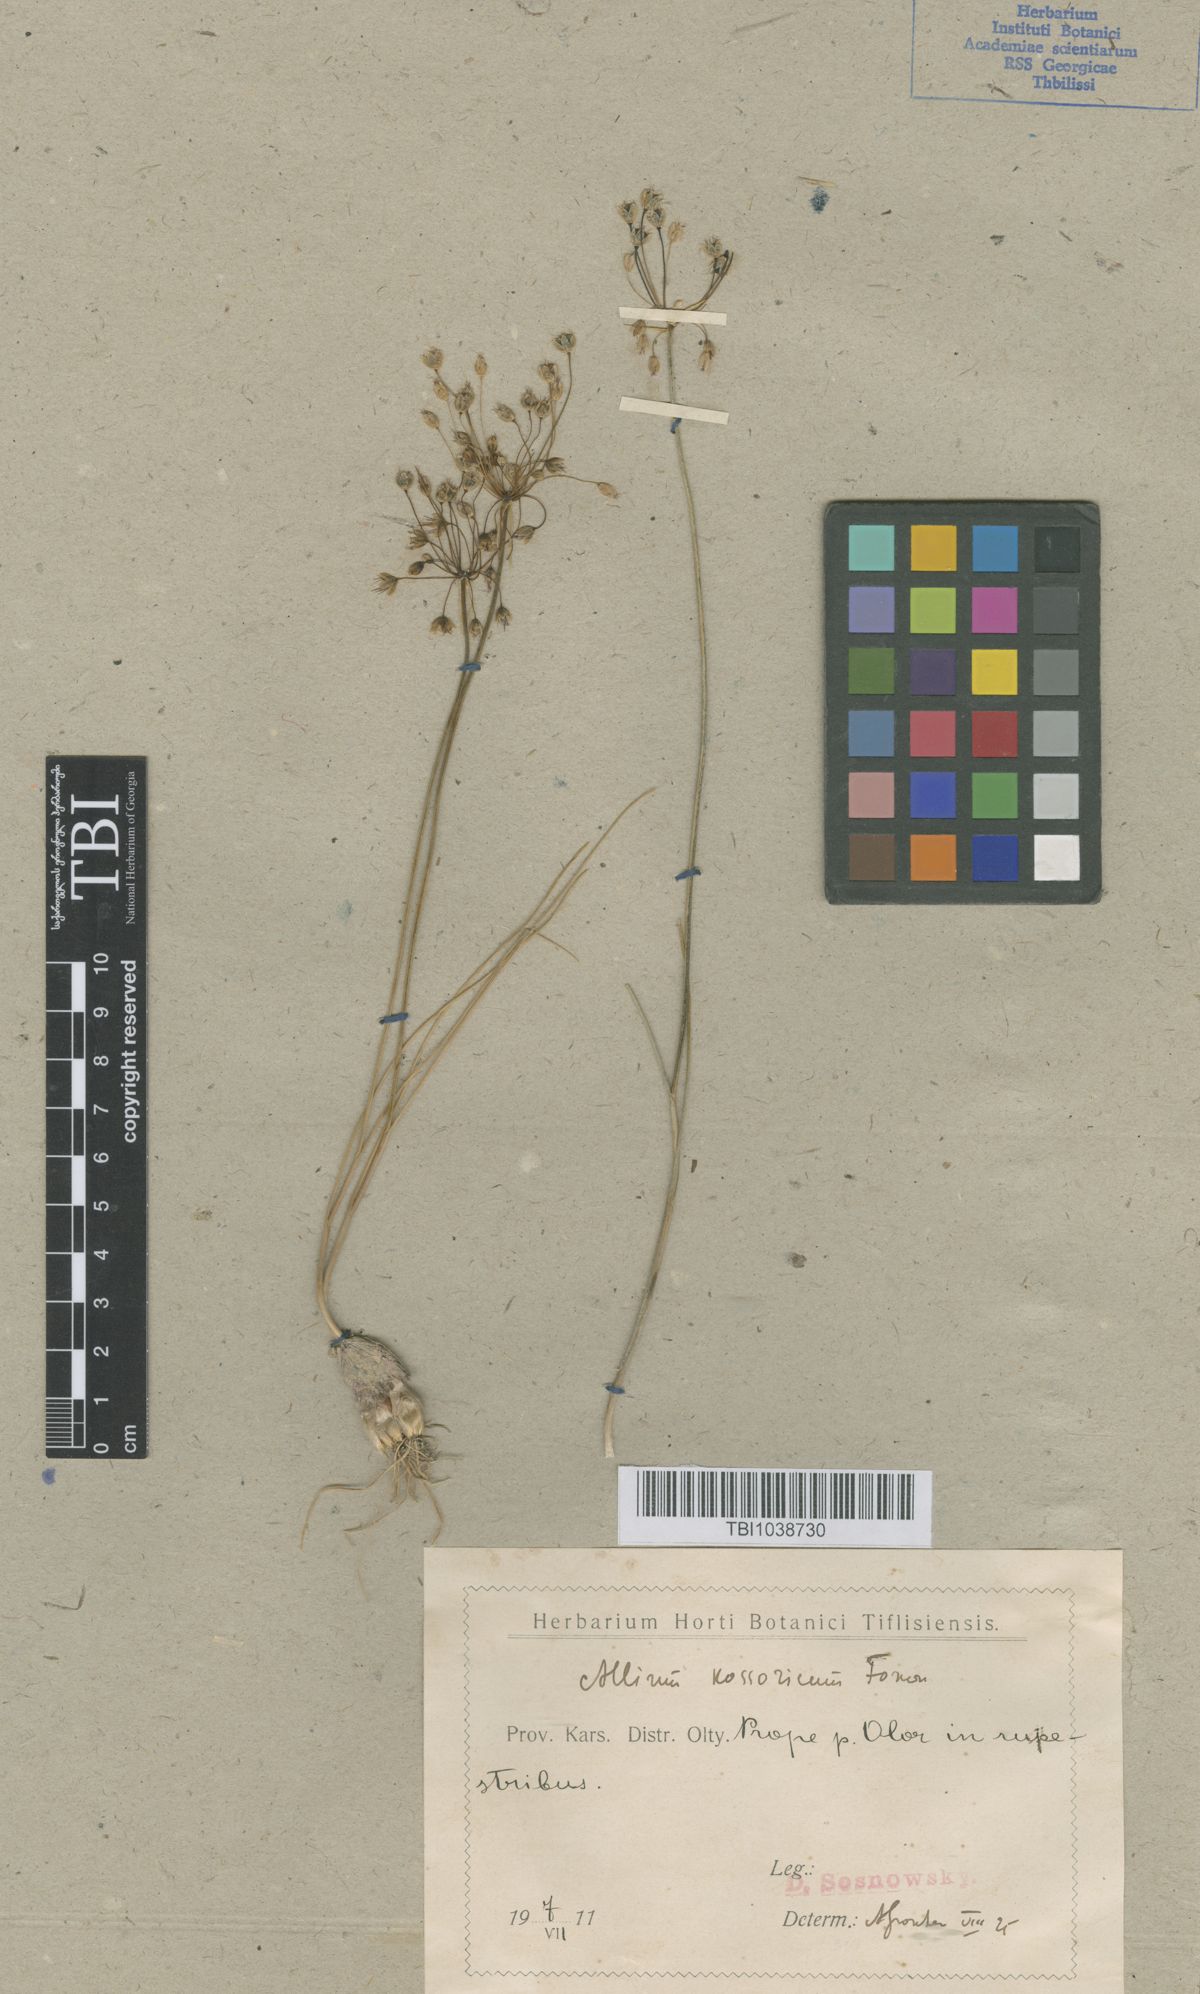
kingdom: Plantae
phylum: Tracheophyta
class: Liliopsida
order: Asparagales
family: Amaryllidaceae
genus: Allium
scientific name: Allium kossoricum
